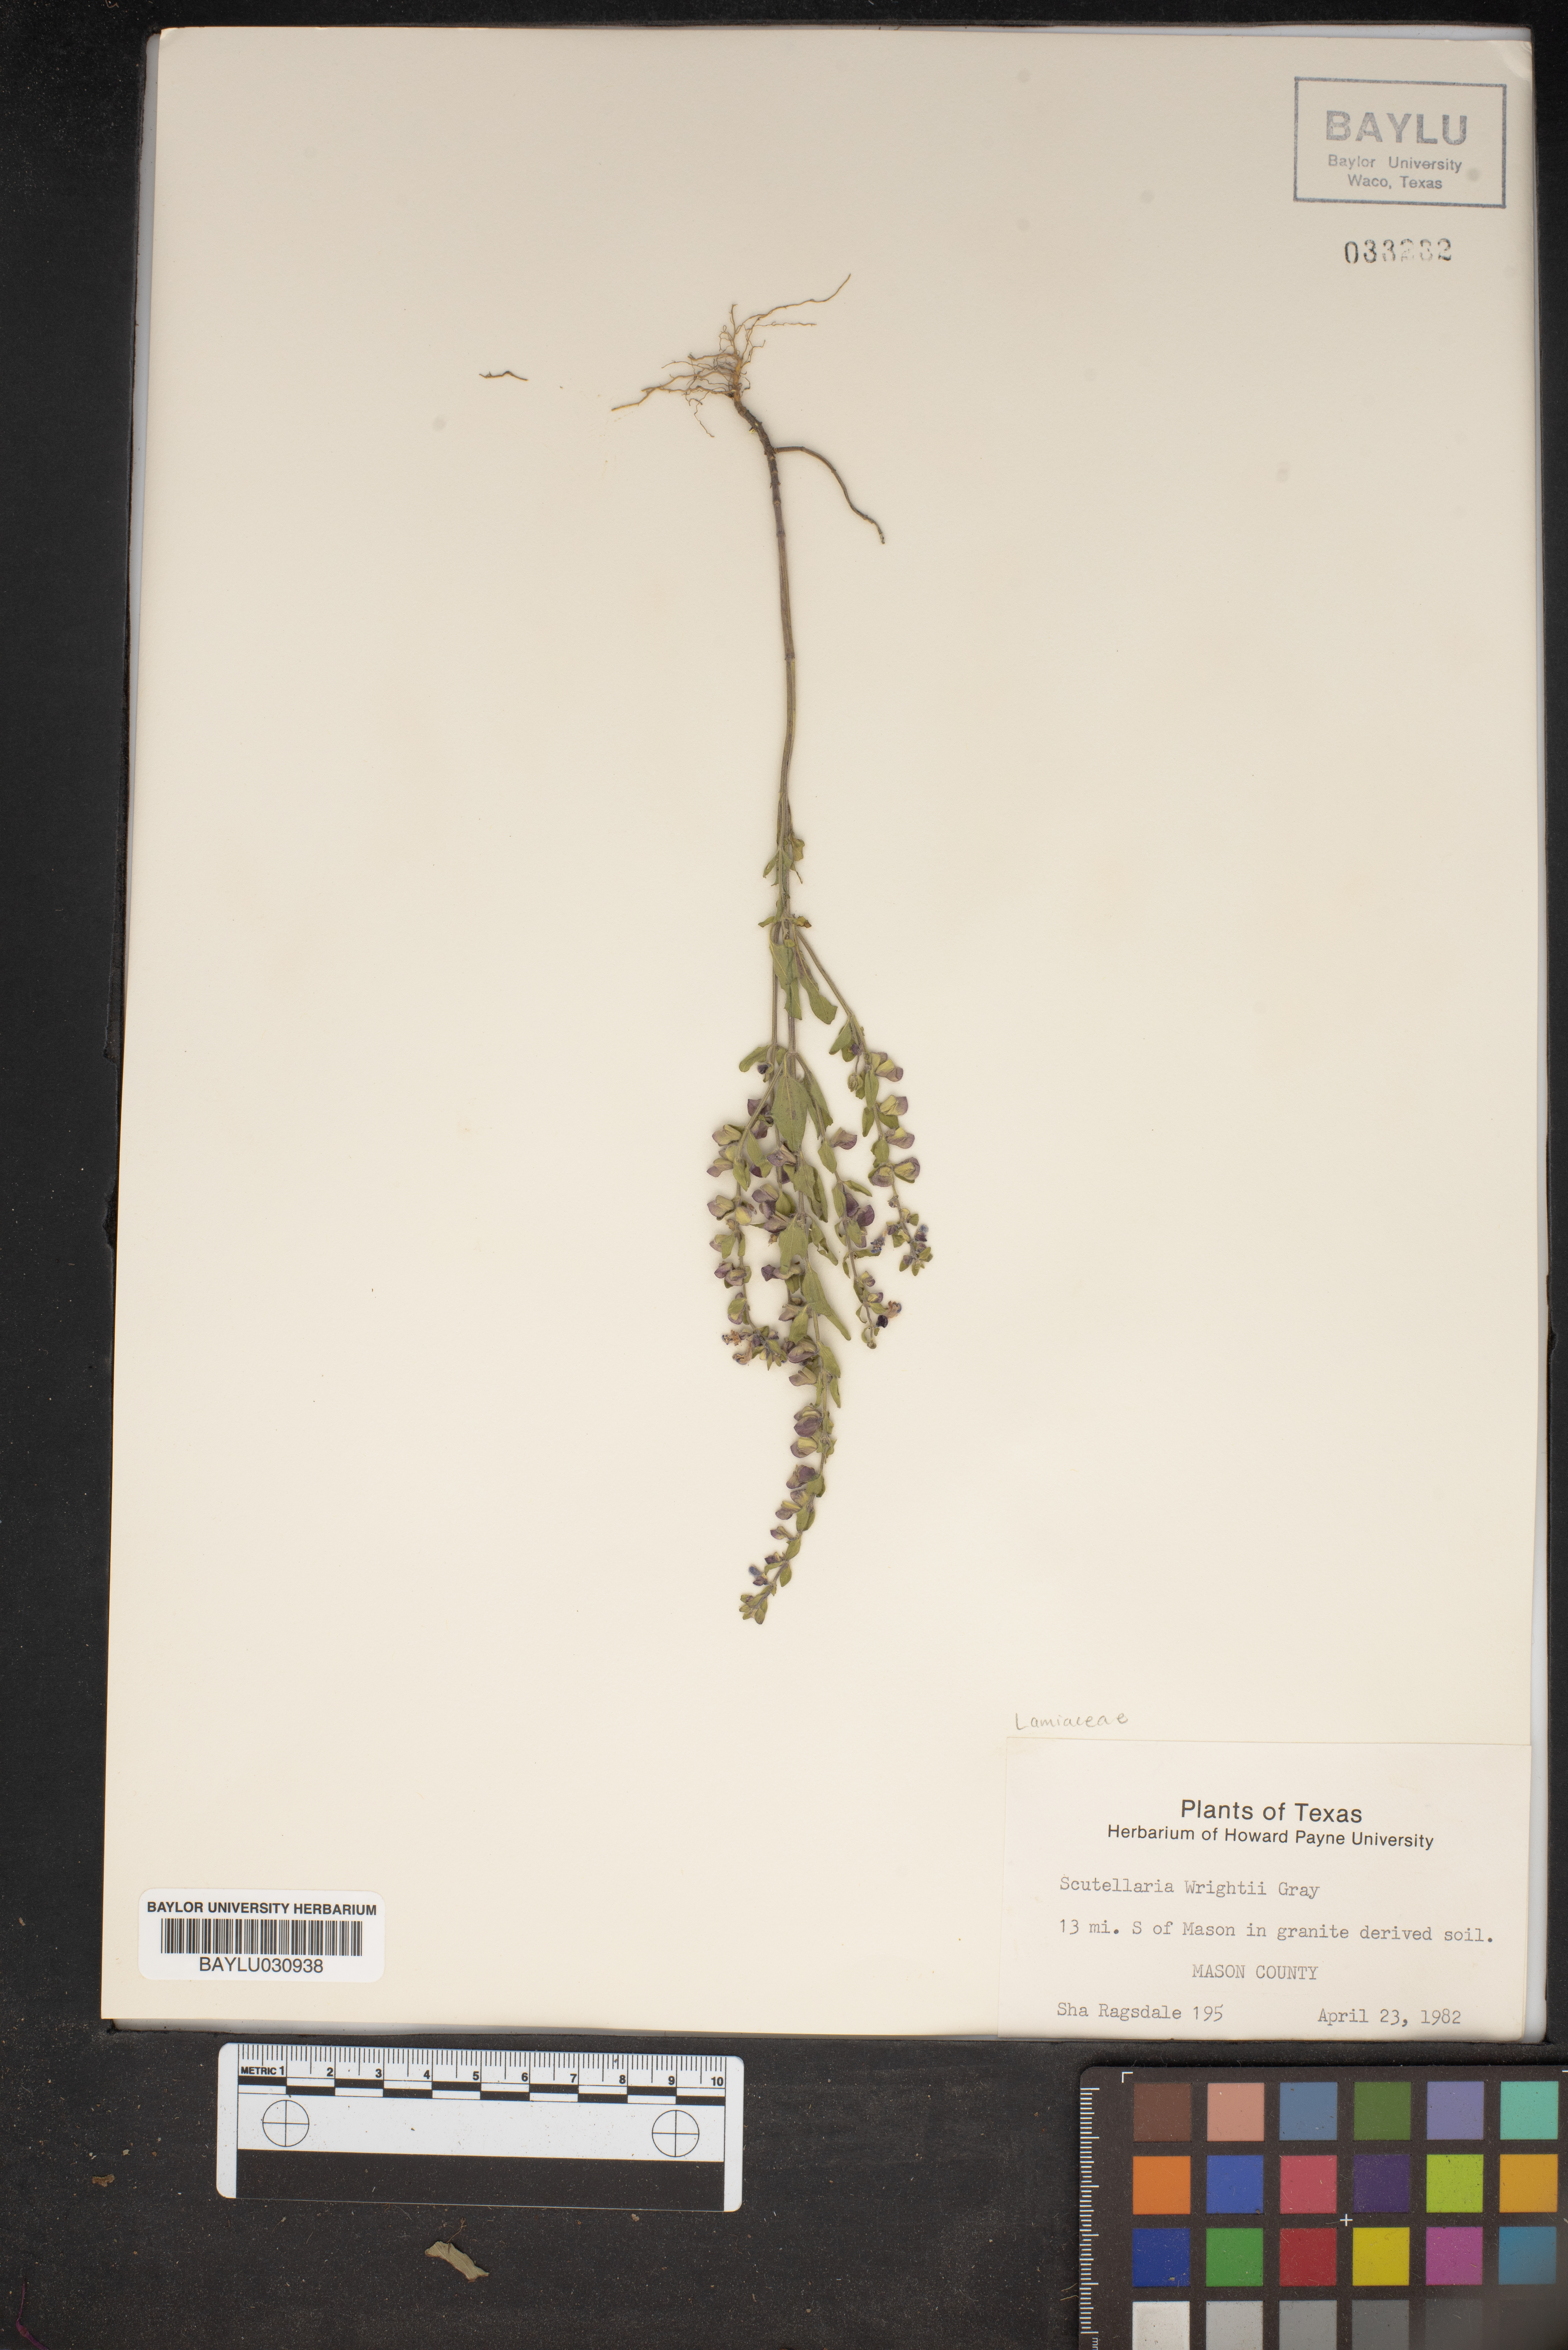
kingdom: Plantae
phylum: Tracheophyta
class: Magnoliopsida
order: Lamiales
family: Lamiaceae
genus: Scutellaria
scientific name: Scutellaria wrightii
